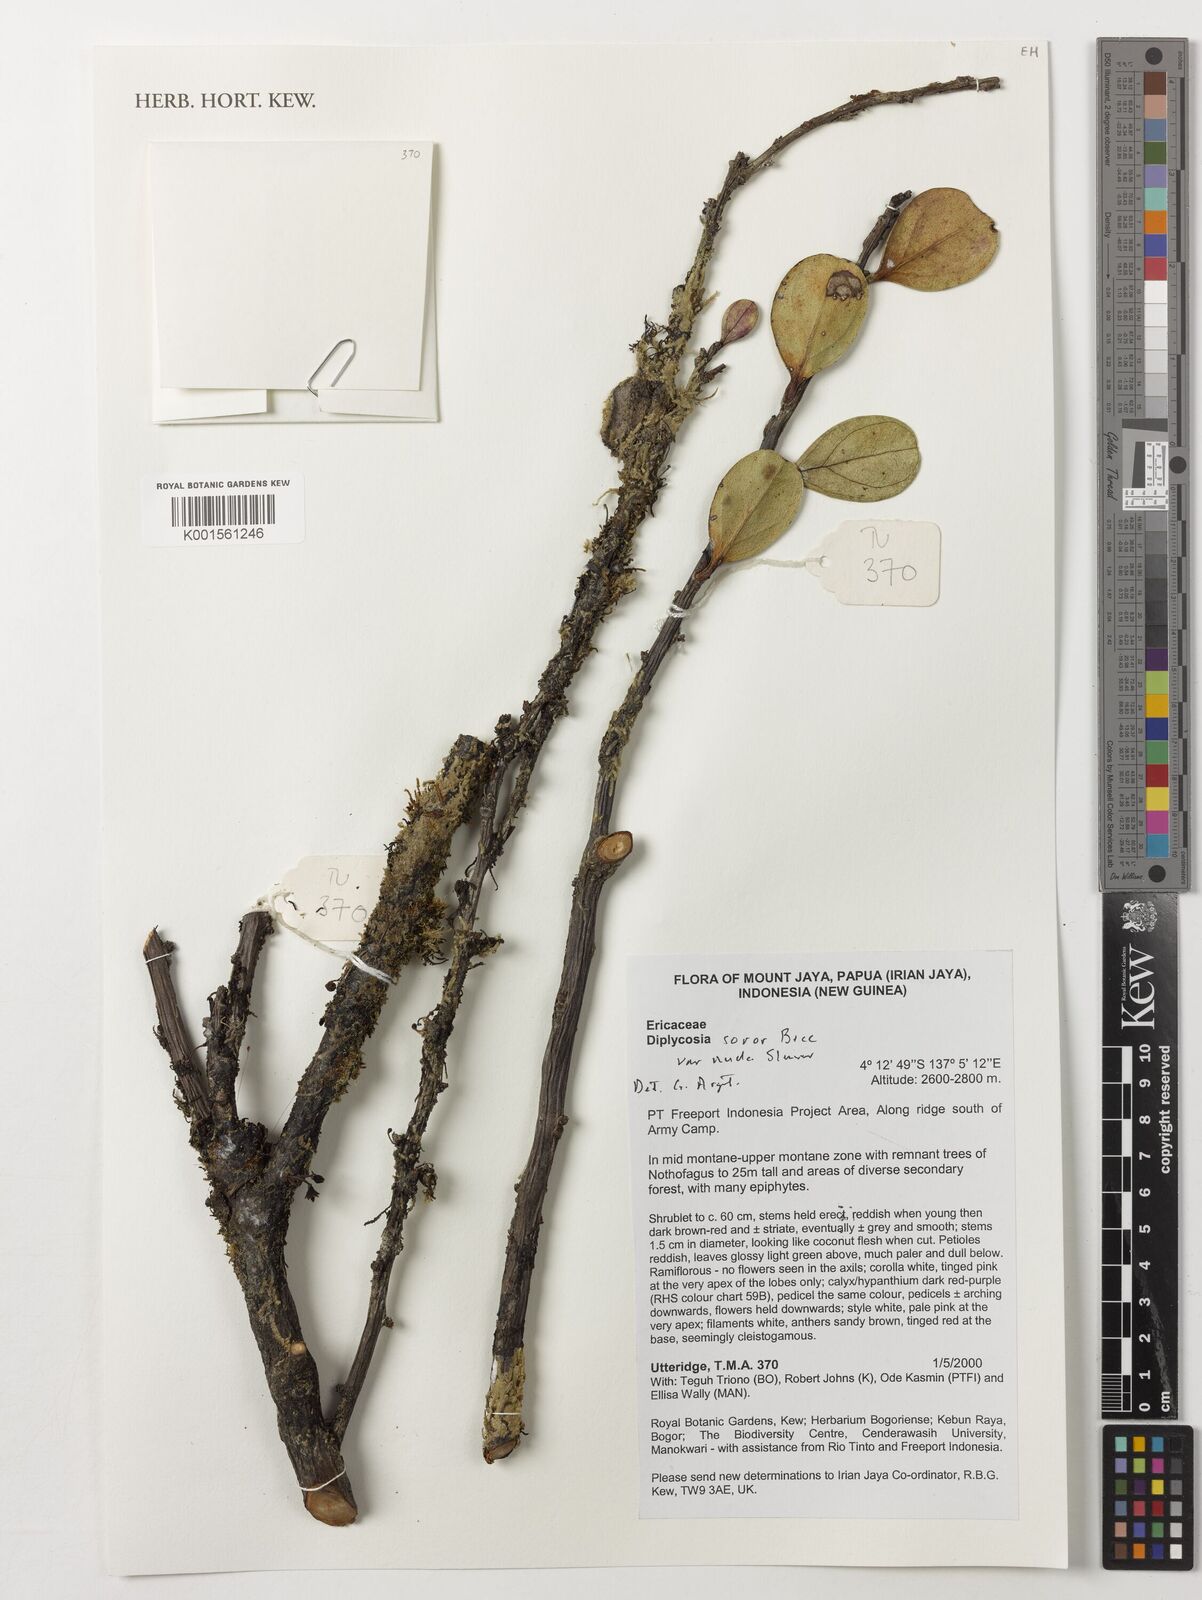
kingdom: Plantae
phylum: Tracheophyta
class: Magnoliopsida
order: Ericales
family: Ericaceae
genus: Gaultheria
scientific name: Gaultheria soror
